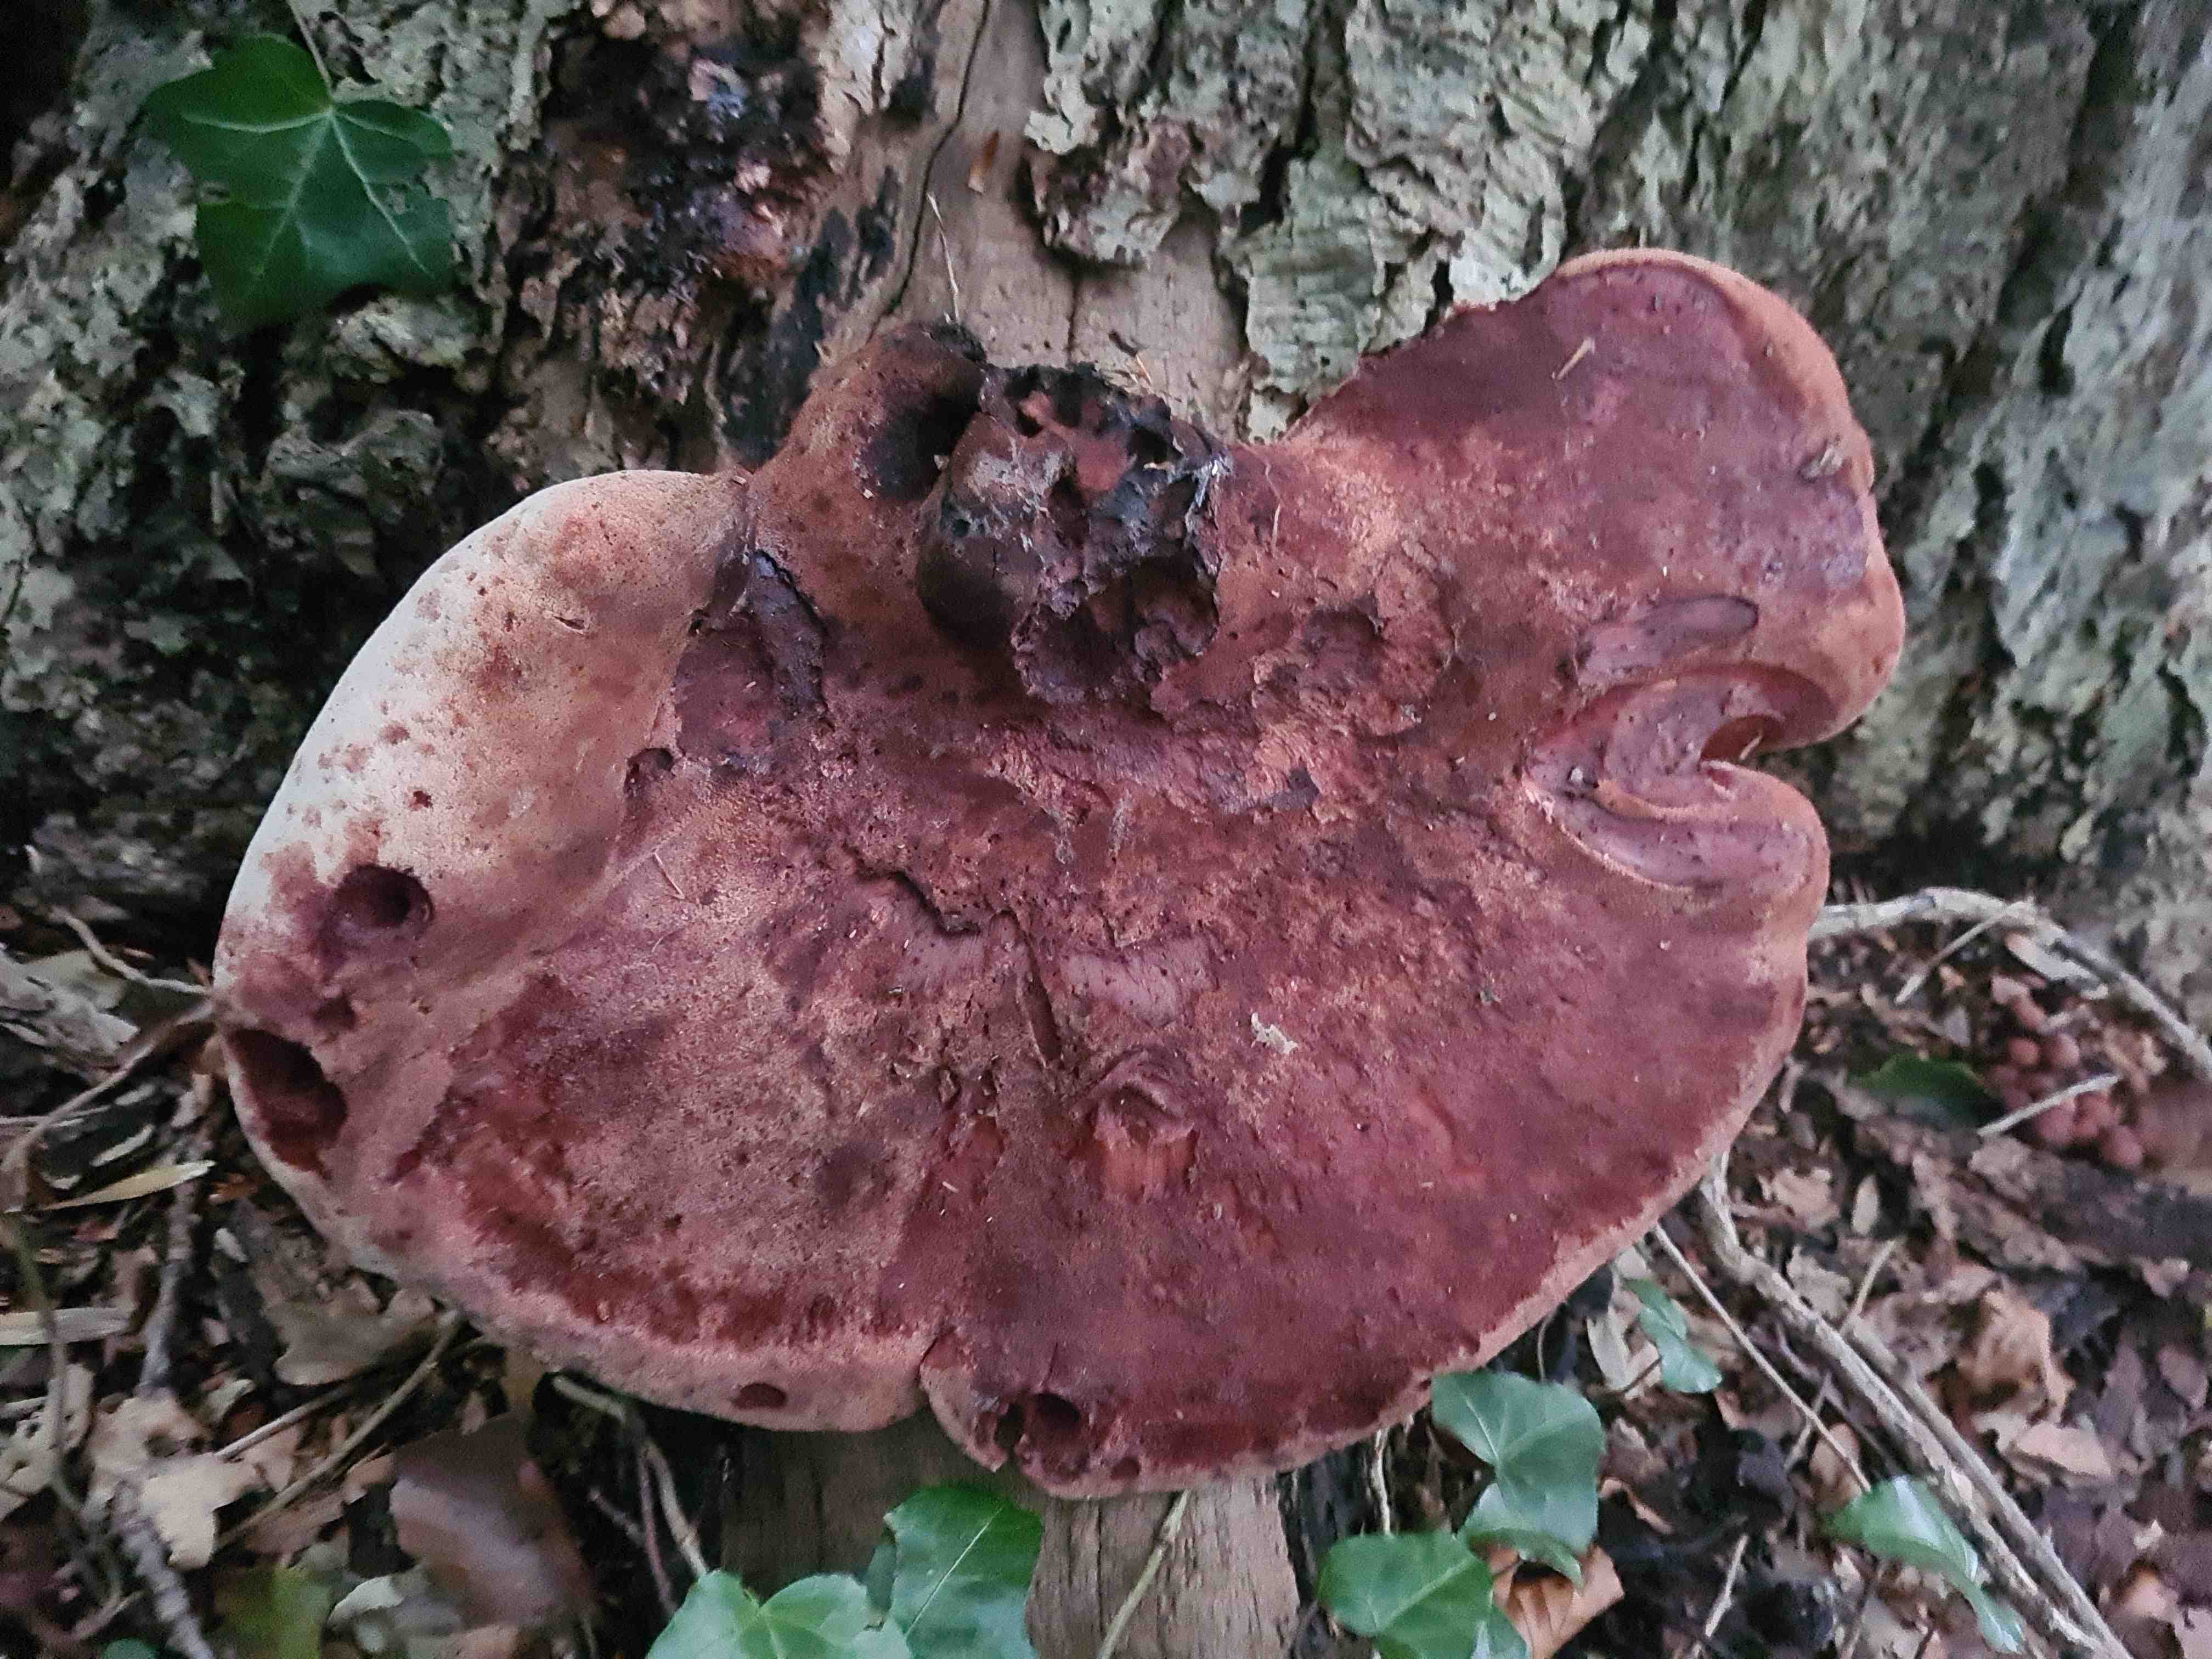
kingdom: Fungi
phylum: Basidiomycota
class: Agaricomycetes
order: Agaricales
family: Fistulinaceae
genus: Fistulina
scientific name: Fistulina hepatica
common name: oksetunge
